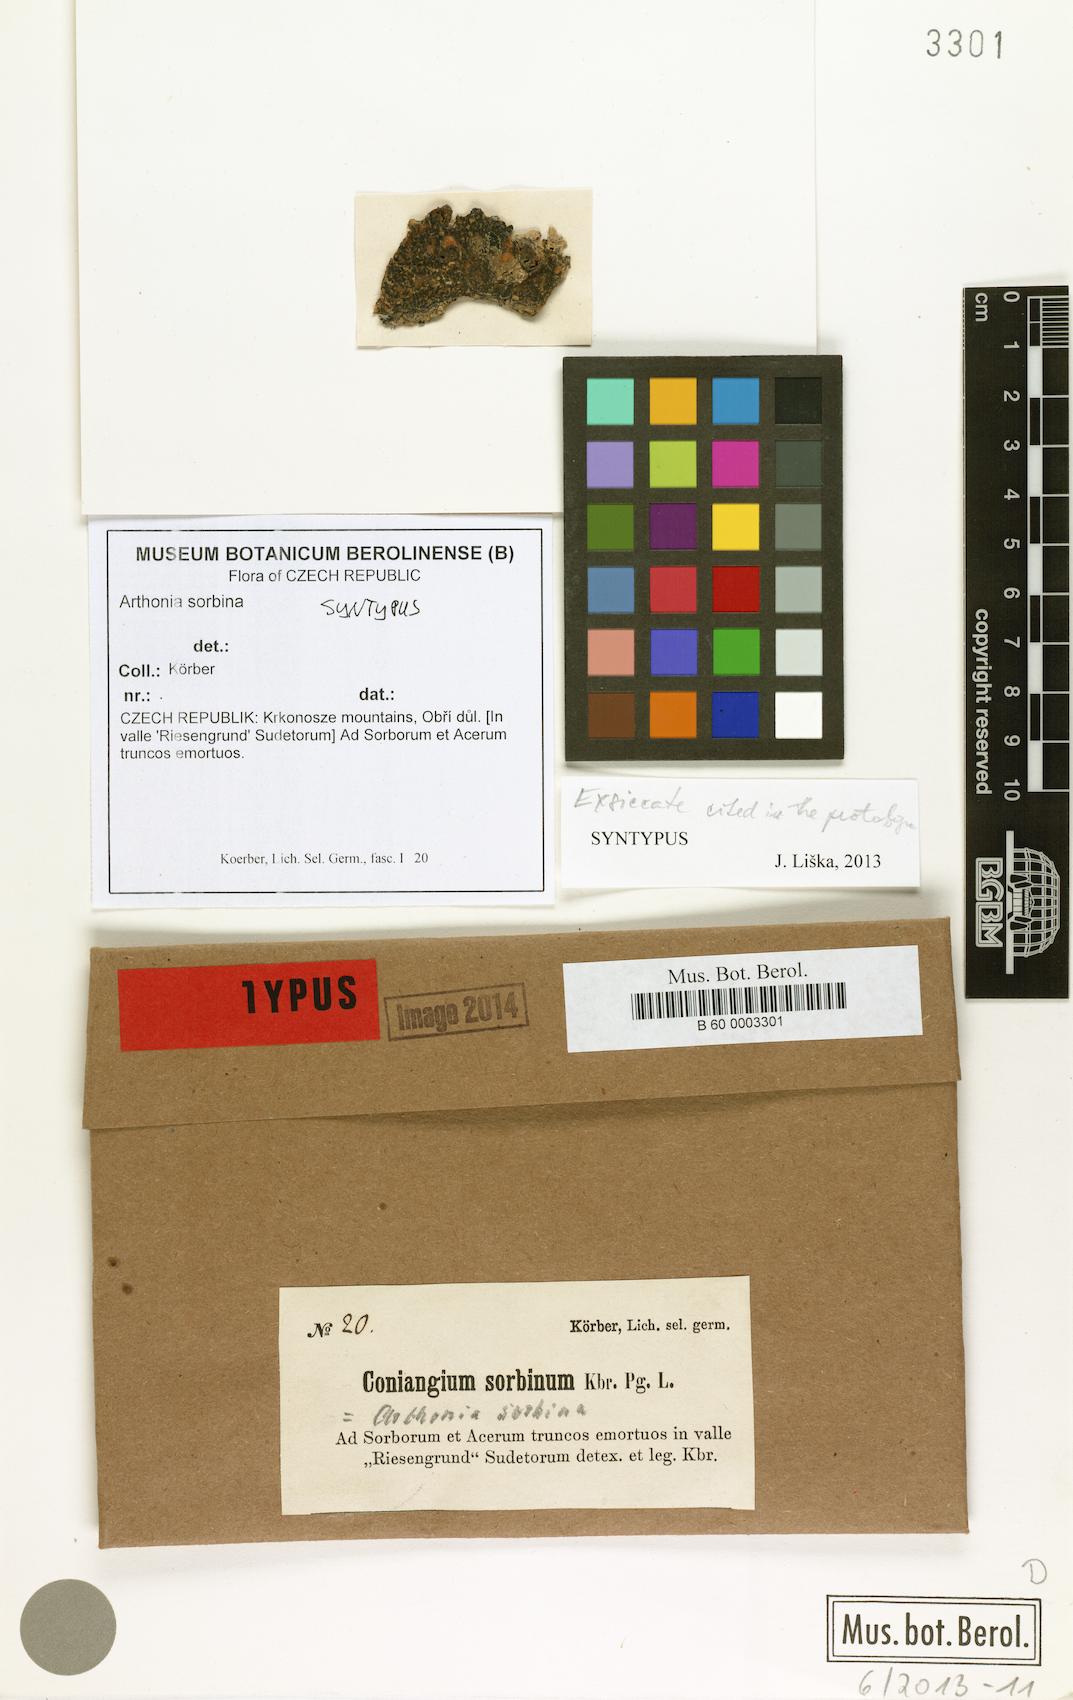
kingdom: Fungi
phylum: Ascomycota
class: Arthoniomycetes
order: Arthoniales
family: Arthoniaceae
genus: Arthonia
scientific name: Arthonia
